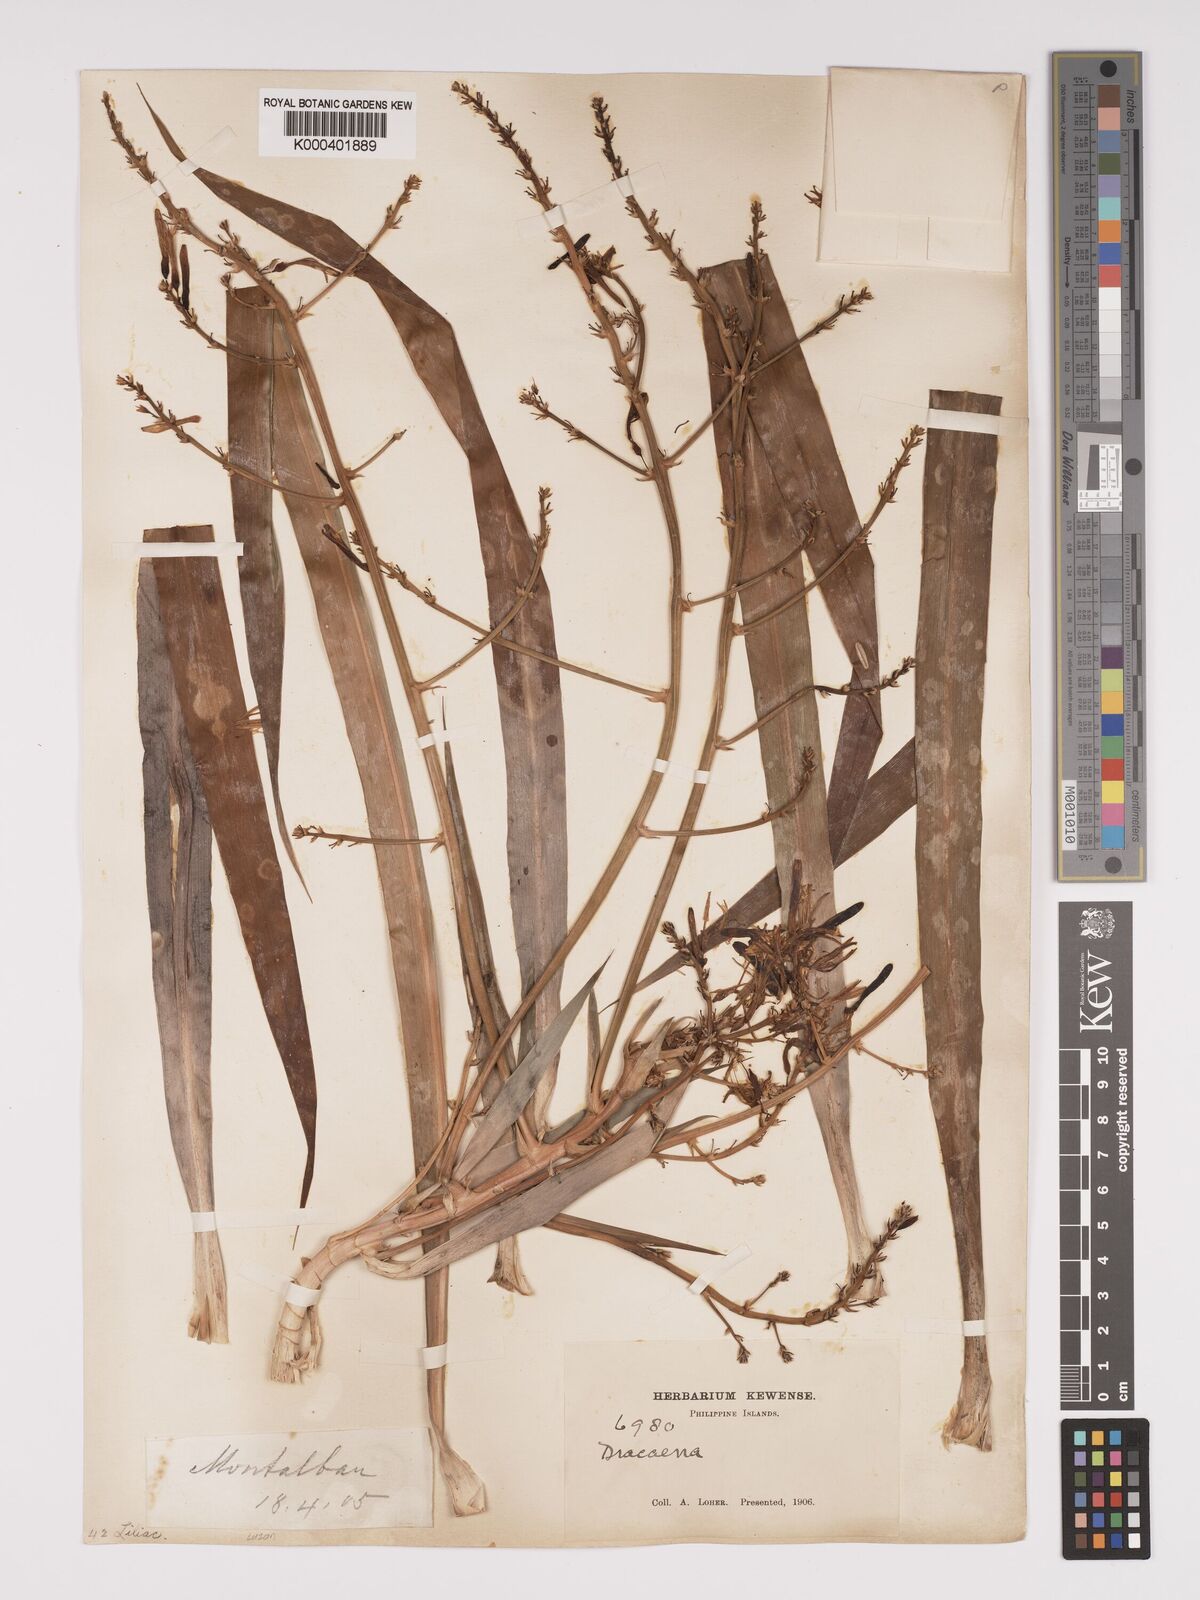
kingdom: Plantae
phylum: Tracheophyta
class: Liliopsida
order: Asparagales
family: Asparagaceae
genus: Dracaena
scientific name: Dracaena angustifolia
